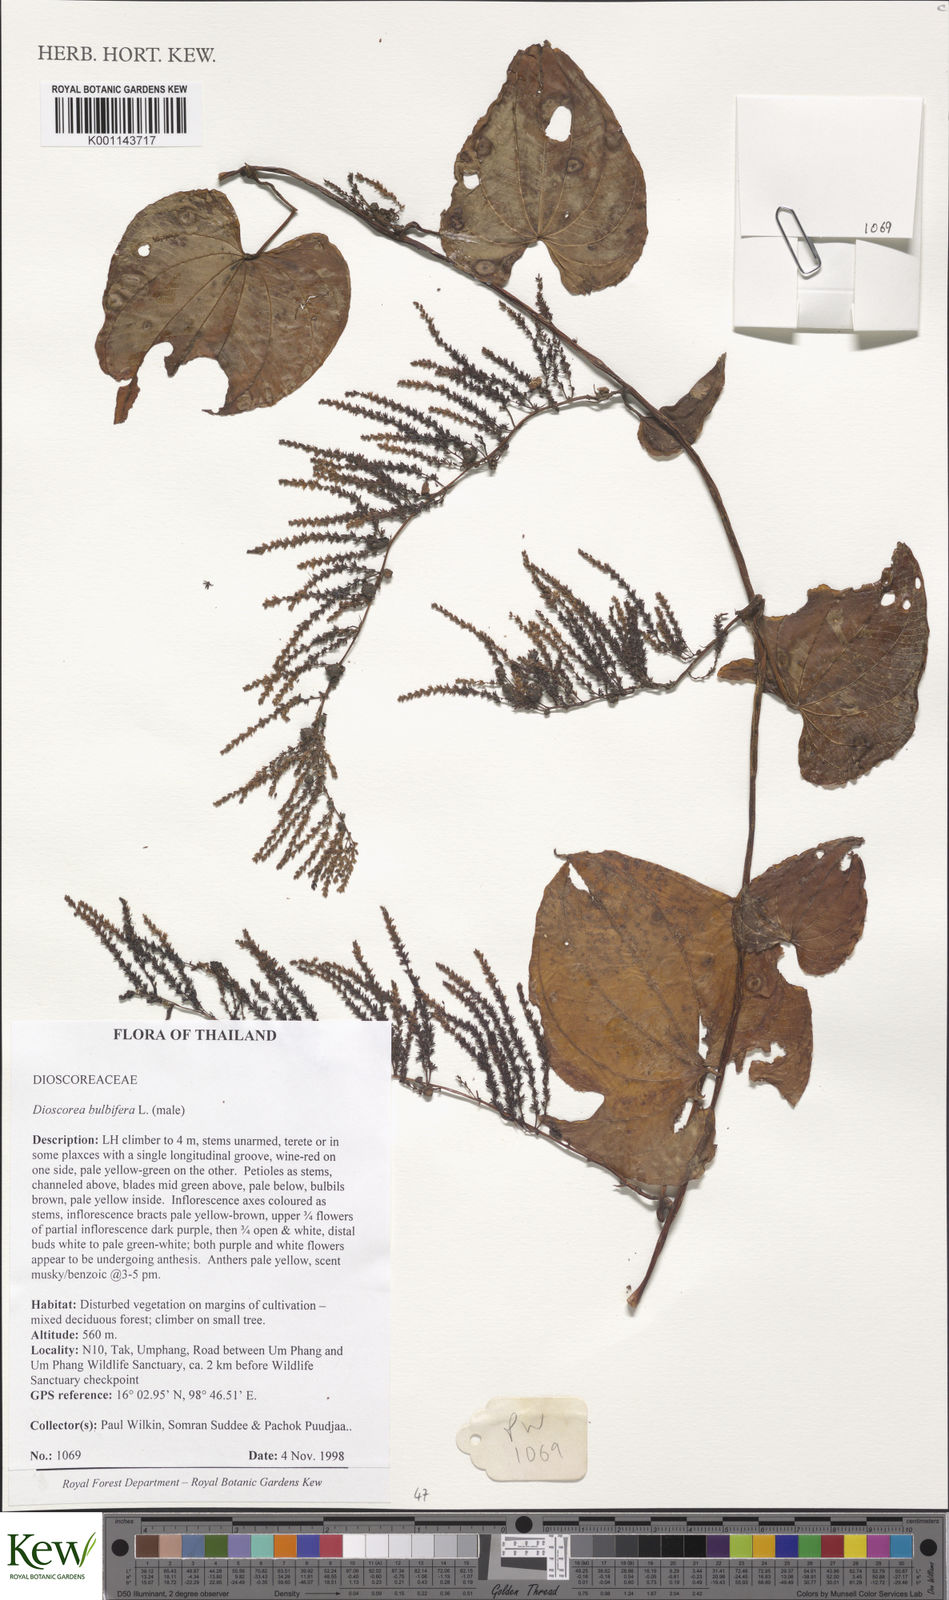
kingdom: Plantae
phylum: Tracheophyta
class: Liliopsida
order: Dioscoreales
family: Dioscoreaceae
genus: Dioscorea
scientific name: Dioscorea bulbifera
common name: Air yam
